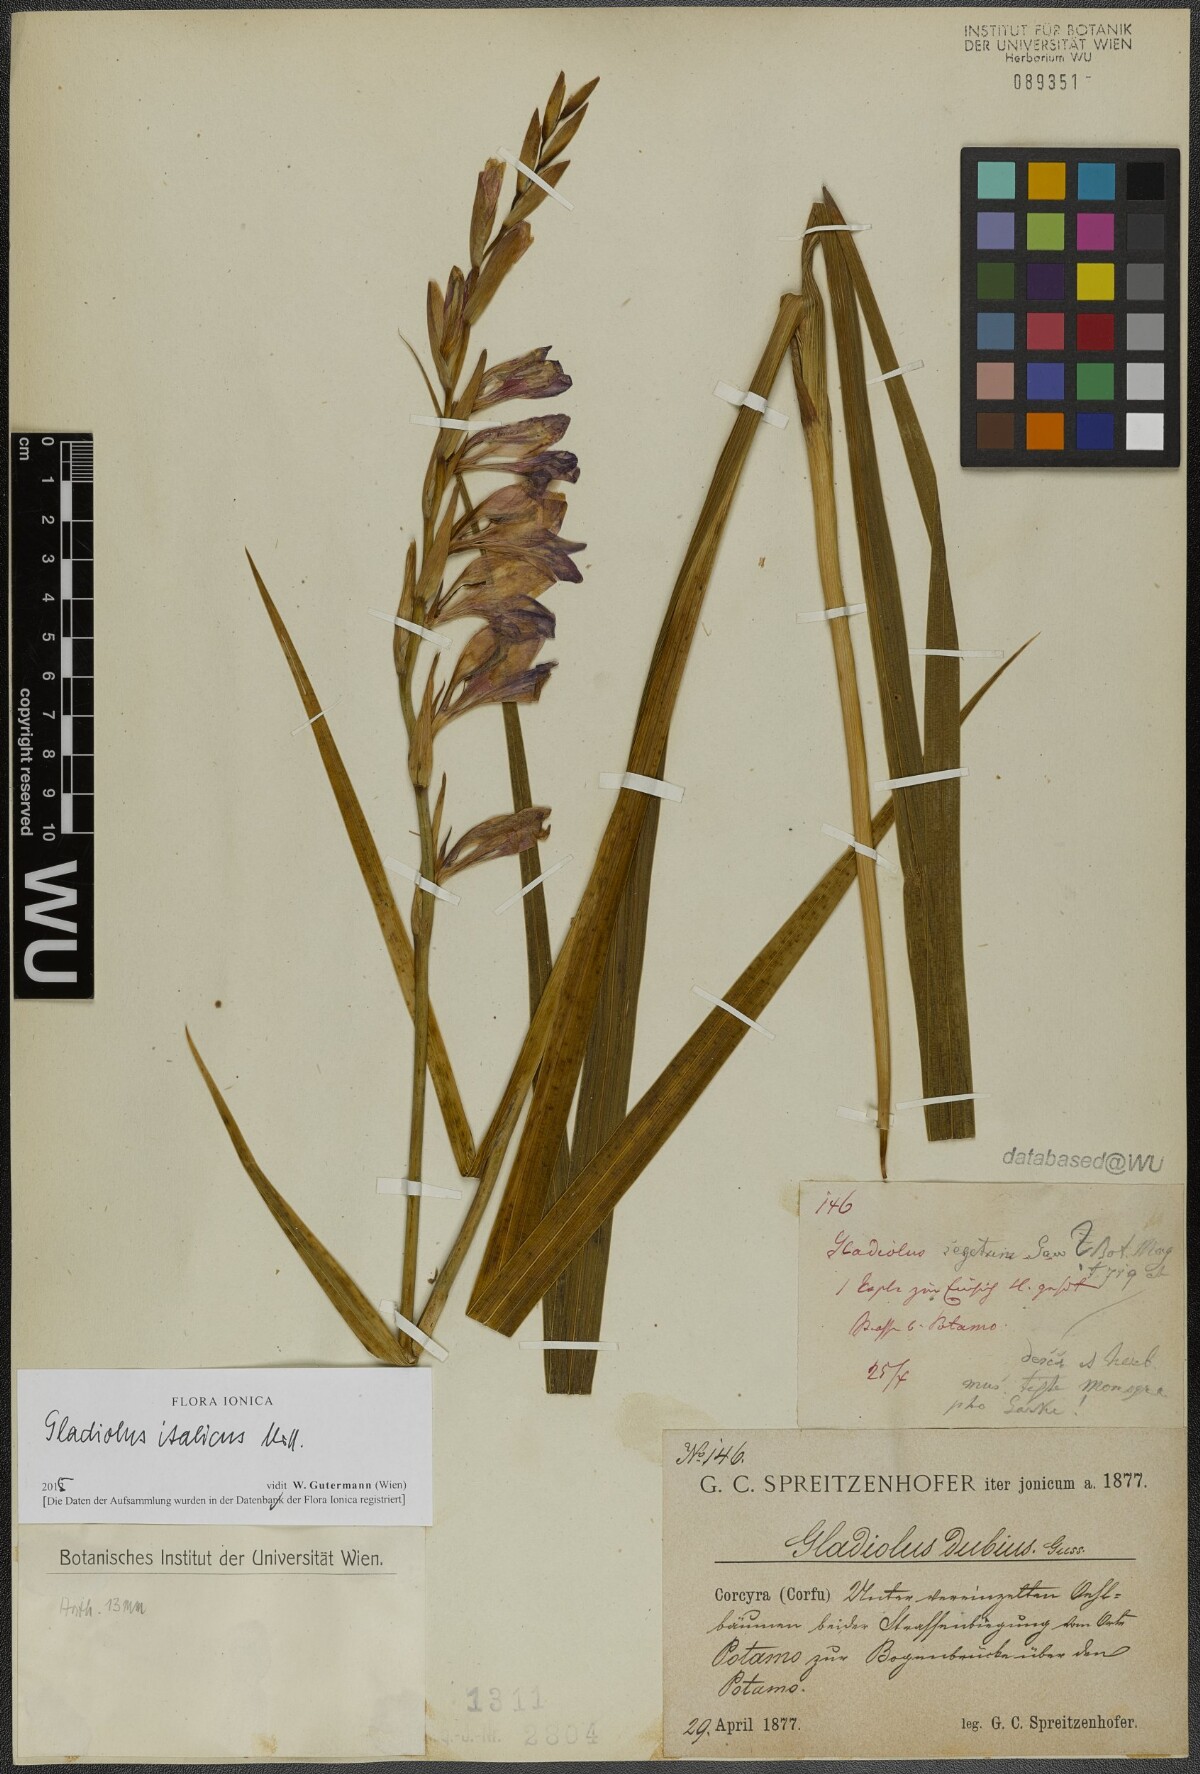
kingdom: Plantae
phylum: Tracheophyta
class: Liliopsida
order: Asparagales
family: Iridaceae
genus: Gladiolus
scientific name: Gladiolus italicus
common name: Field gladiolus
